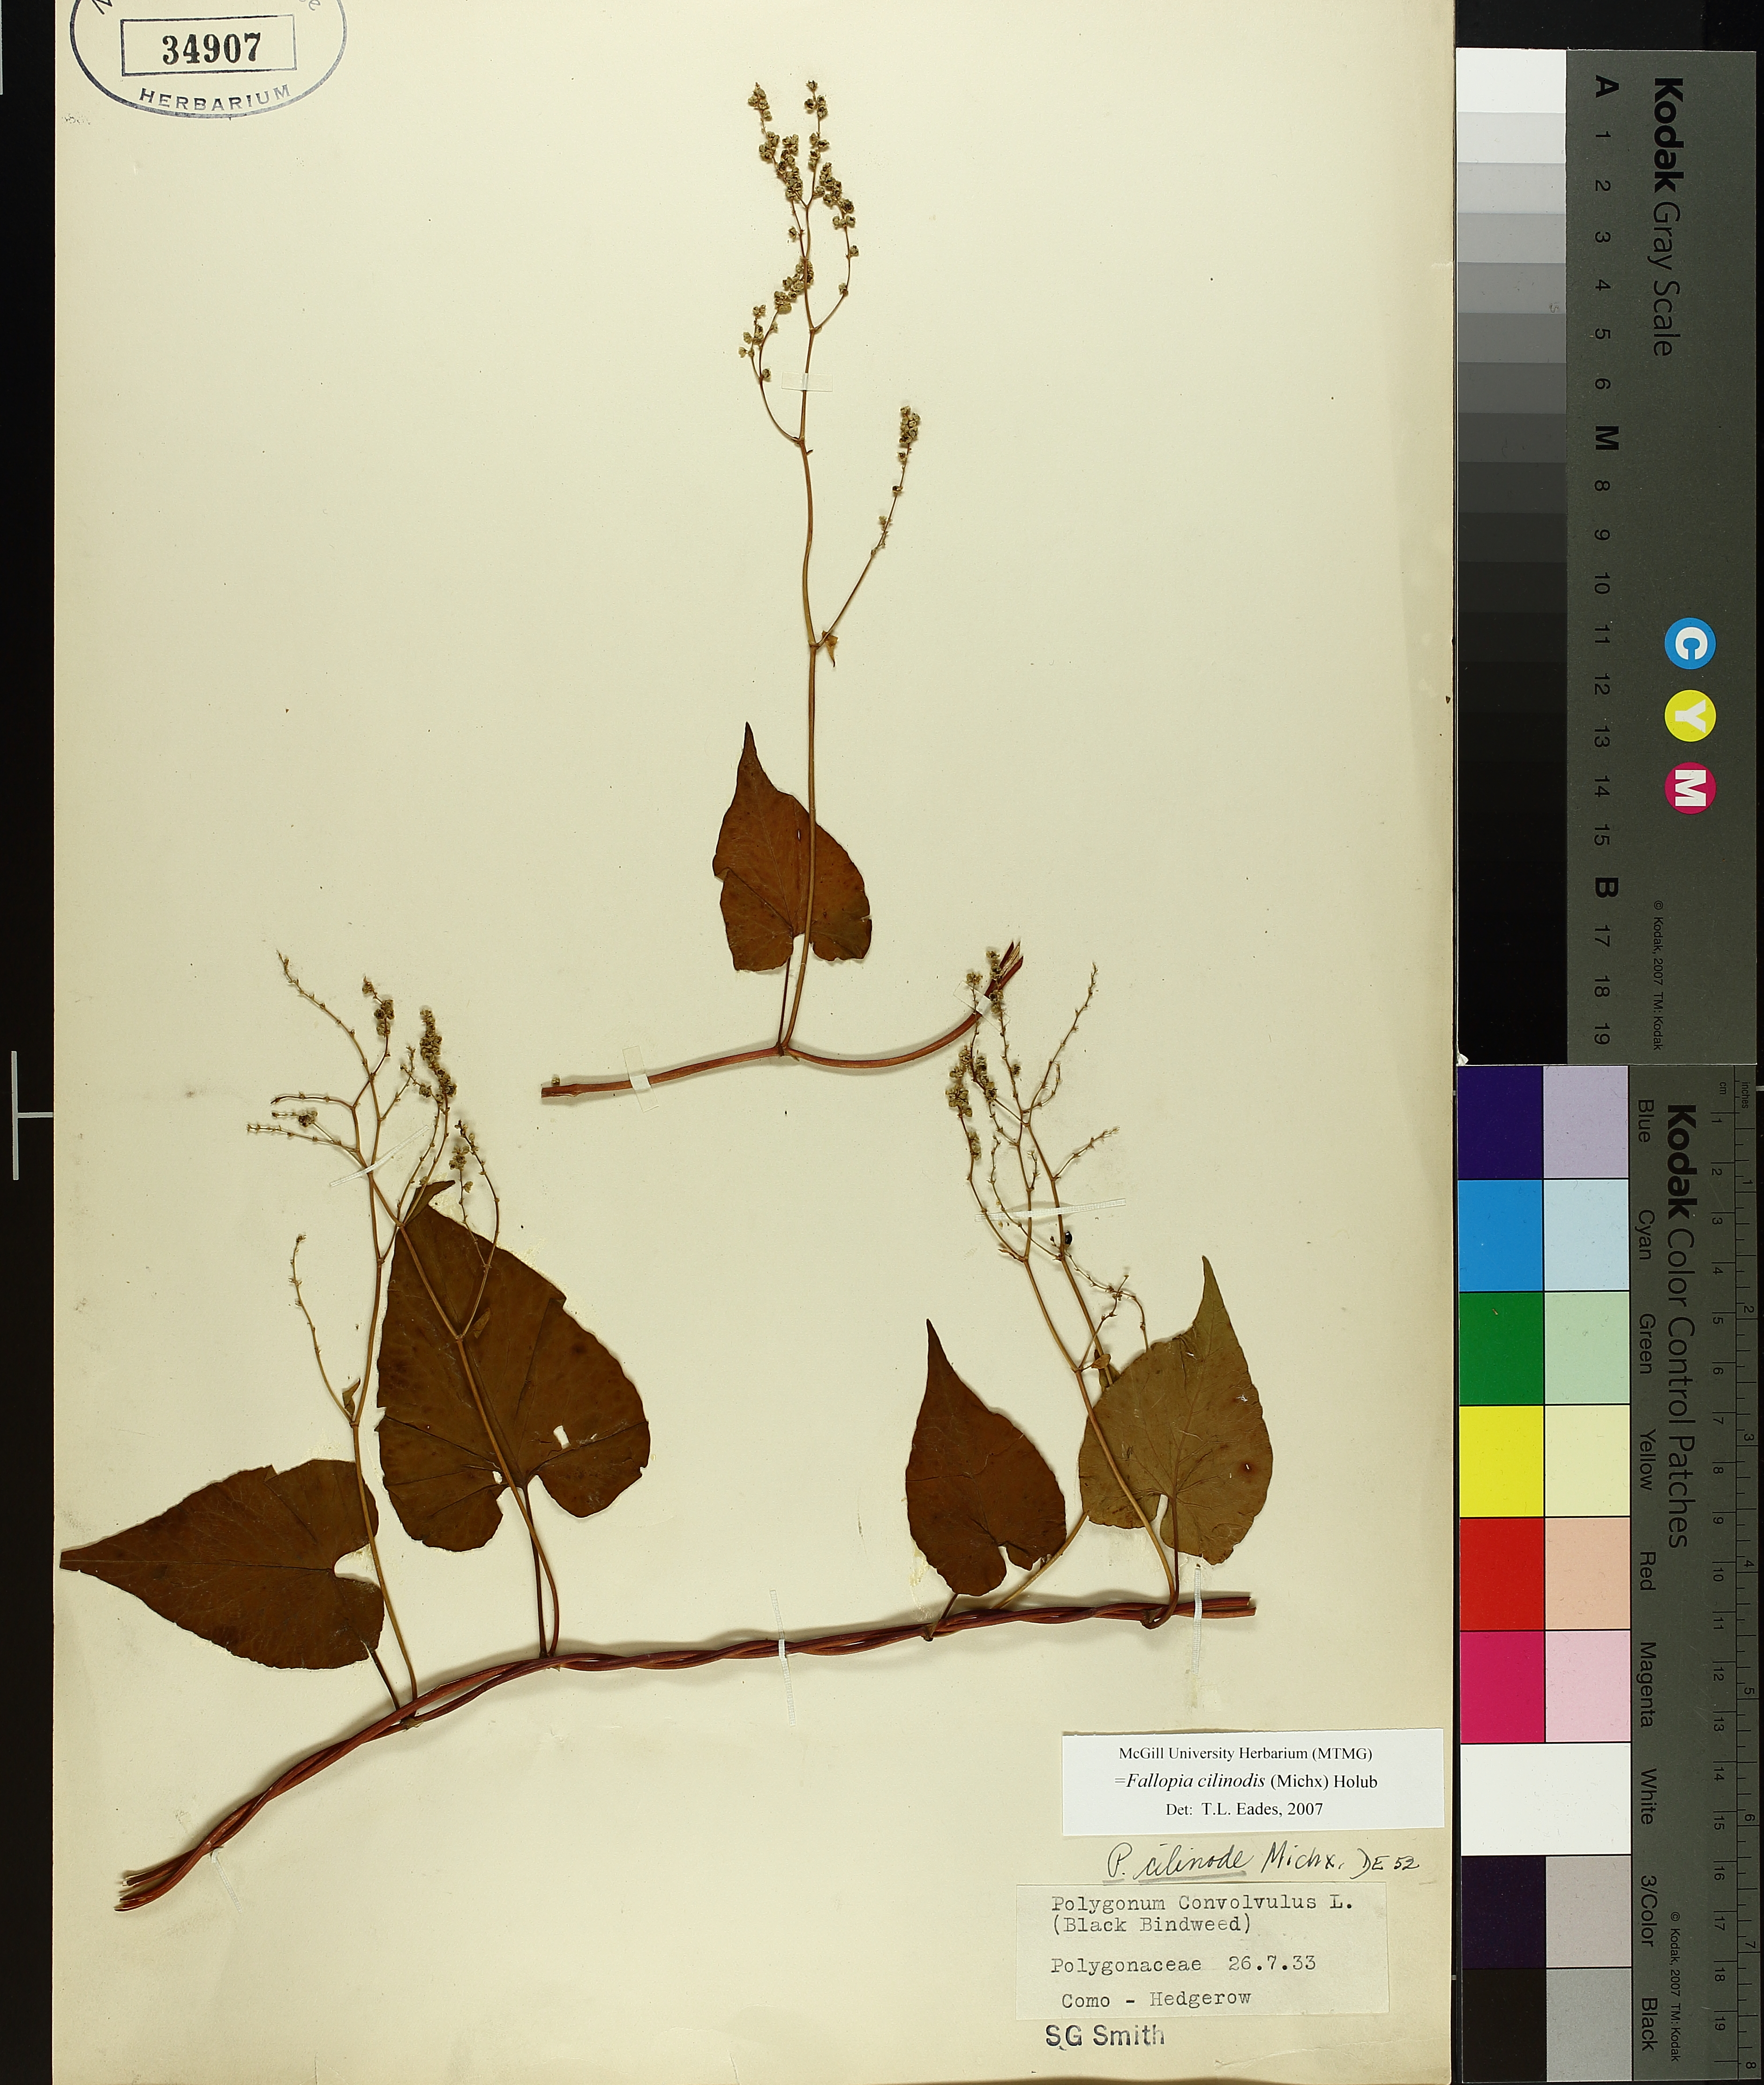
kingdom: Plantae
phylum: Tracheophyta
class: Magnoliopsida
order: Caryophyllales
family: Polygonaceae
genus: Parogonum
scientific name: Parogonum ciliinode
